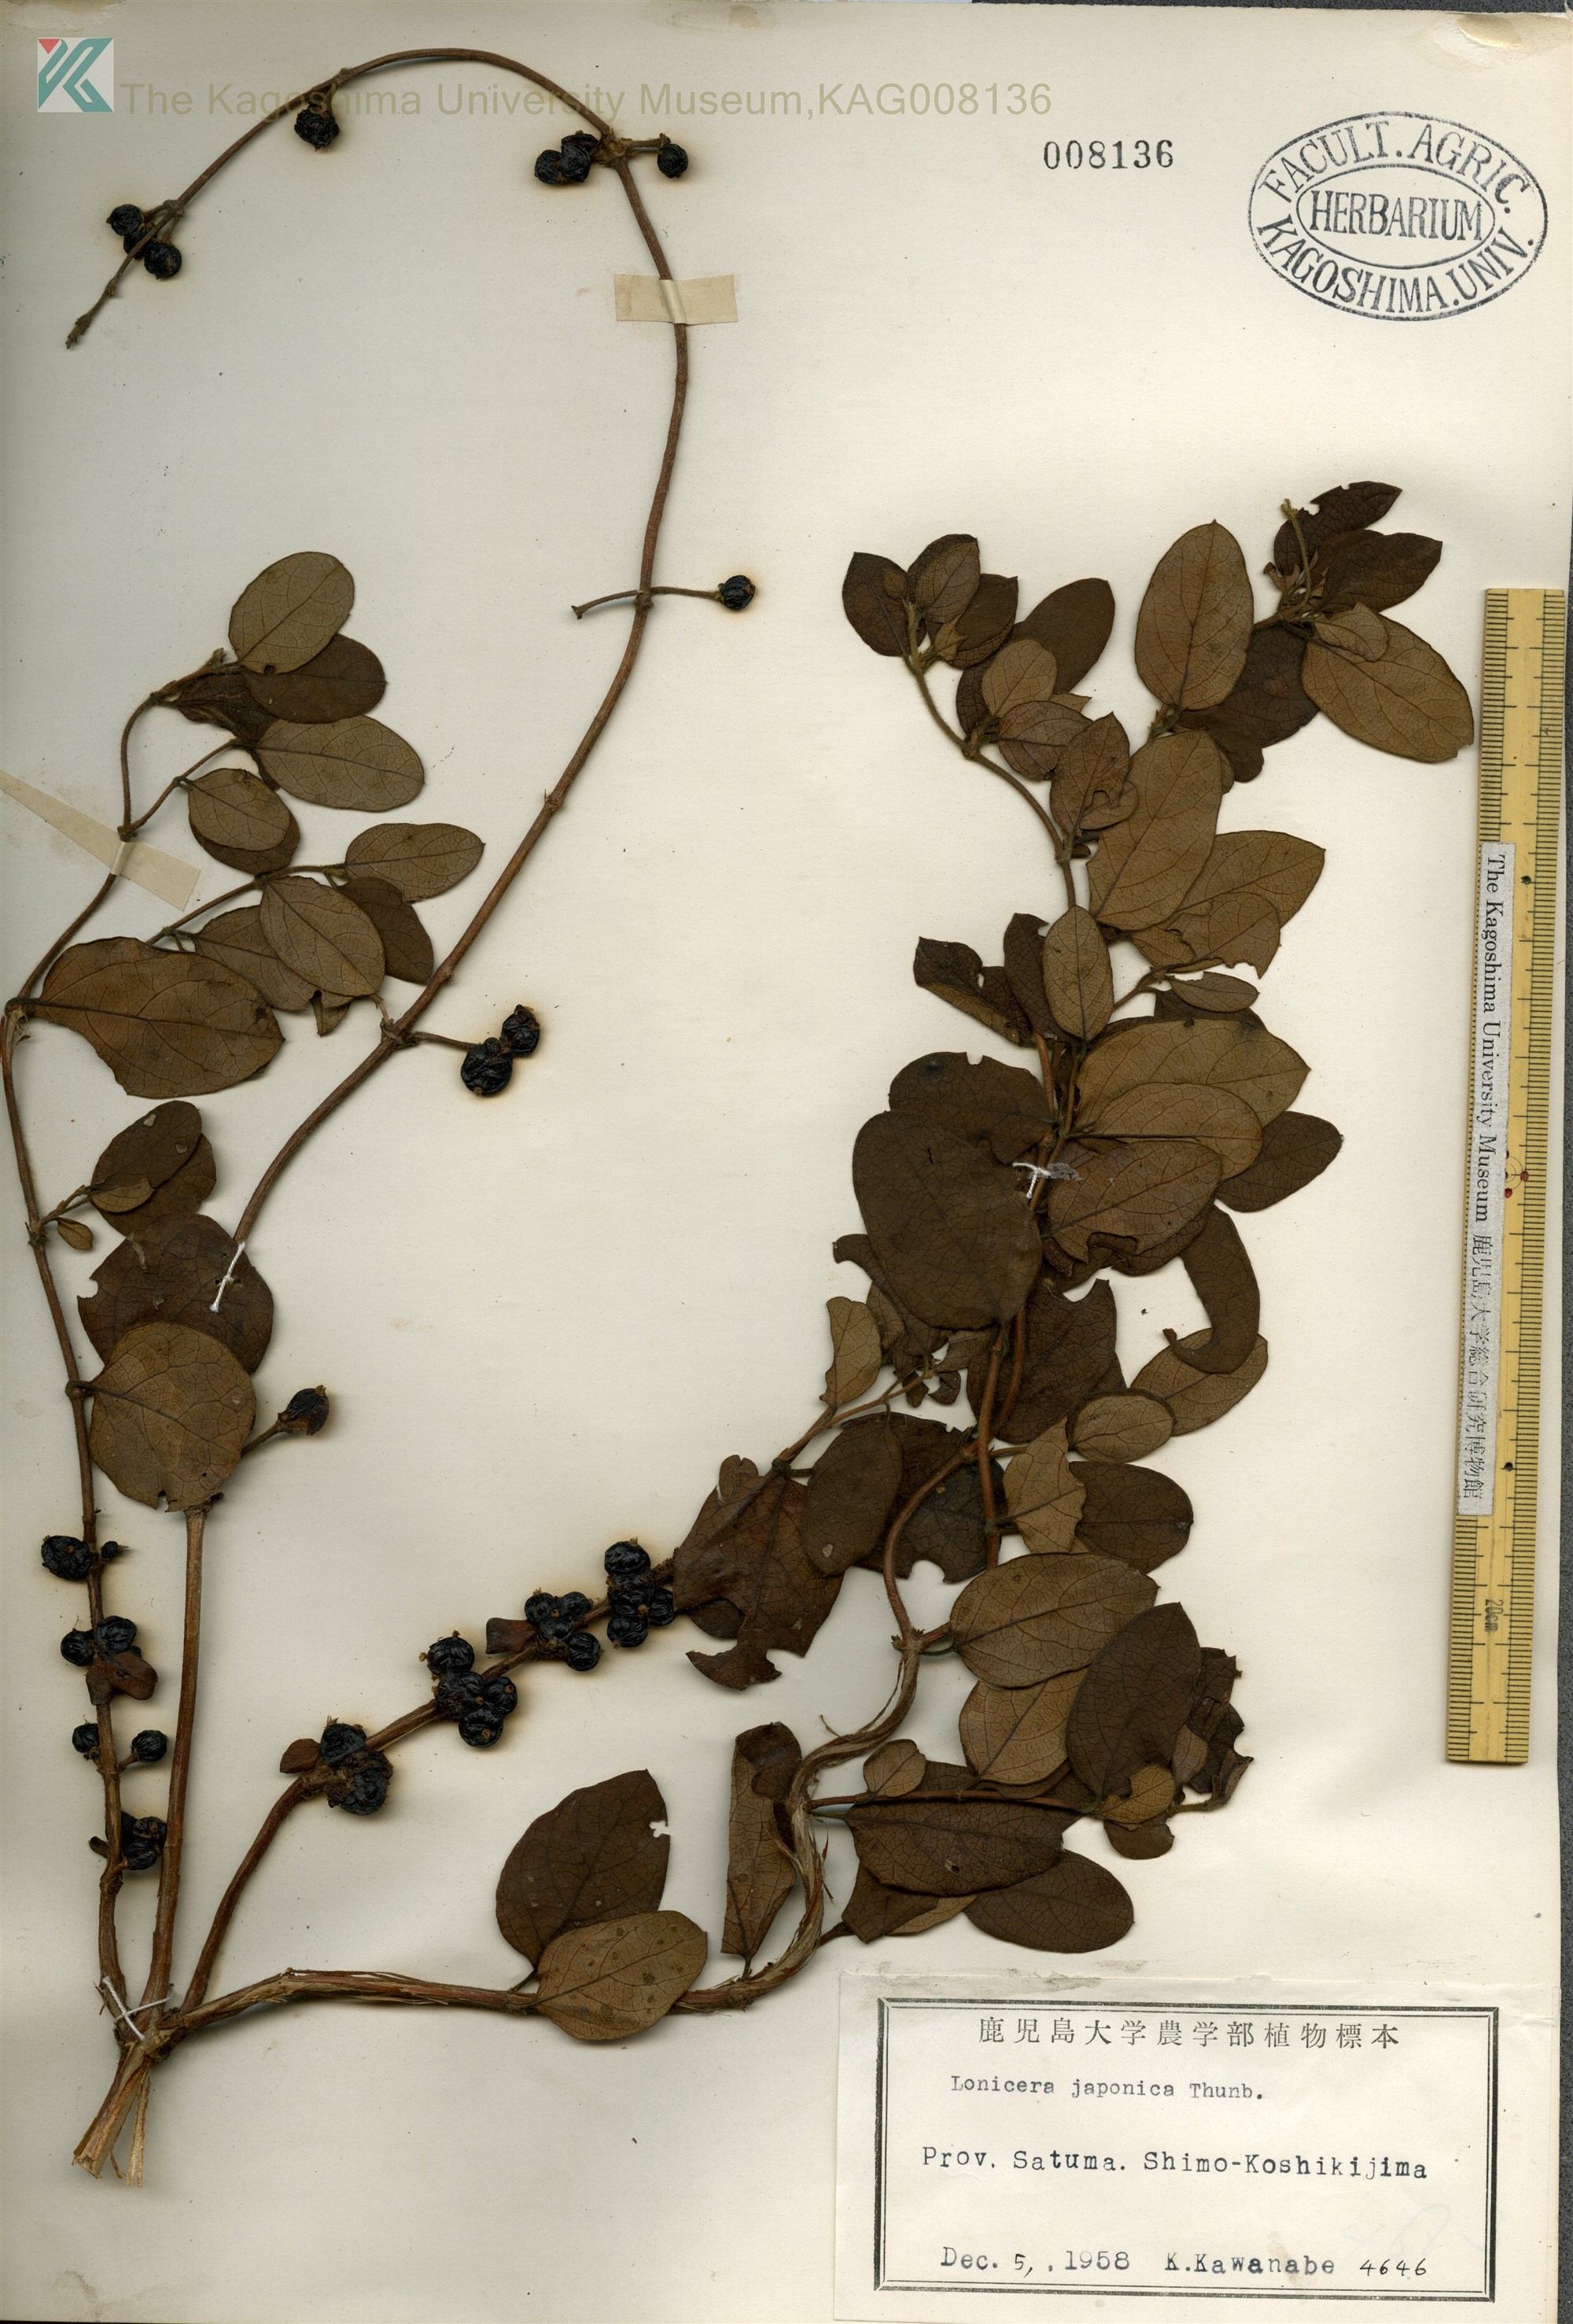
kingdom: Plantae
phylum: Tracheophyta
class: Magnoliopsida
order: Dipsacales
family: Caprifoliaceae
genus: Lonicera
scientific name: Lonicera japonica
